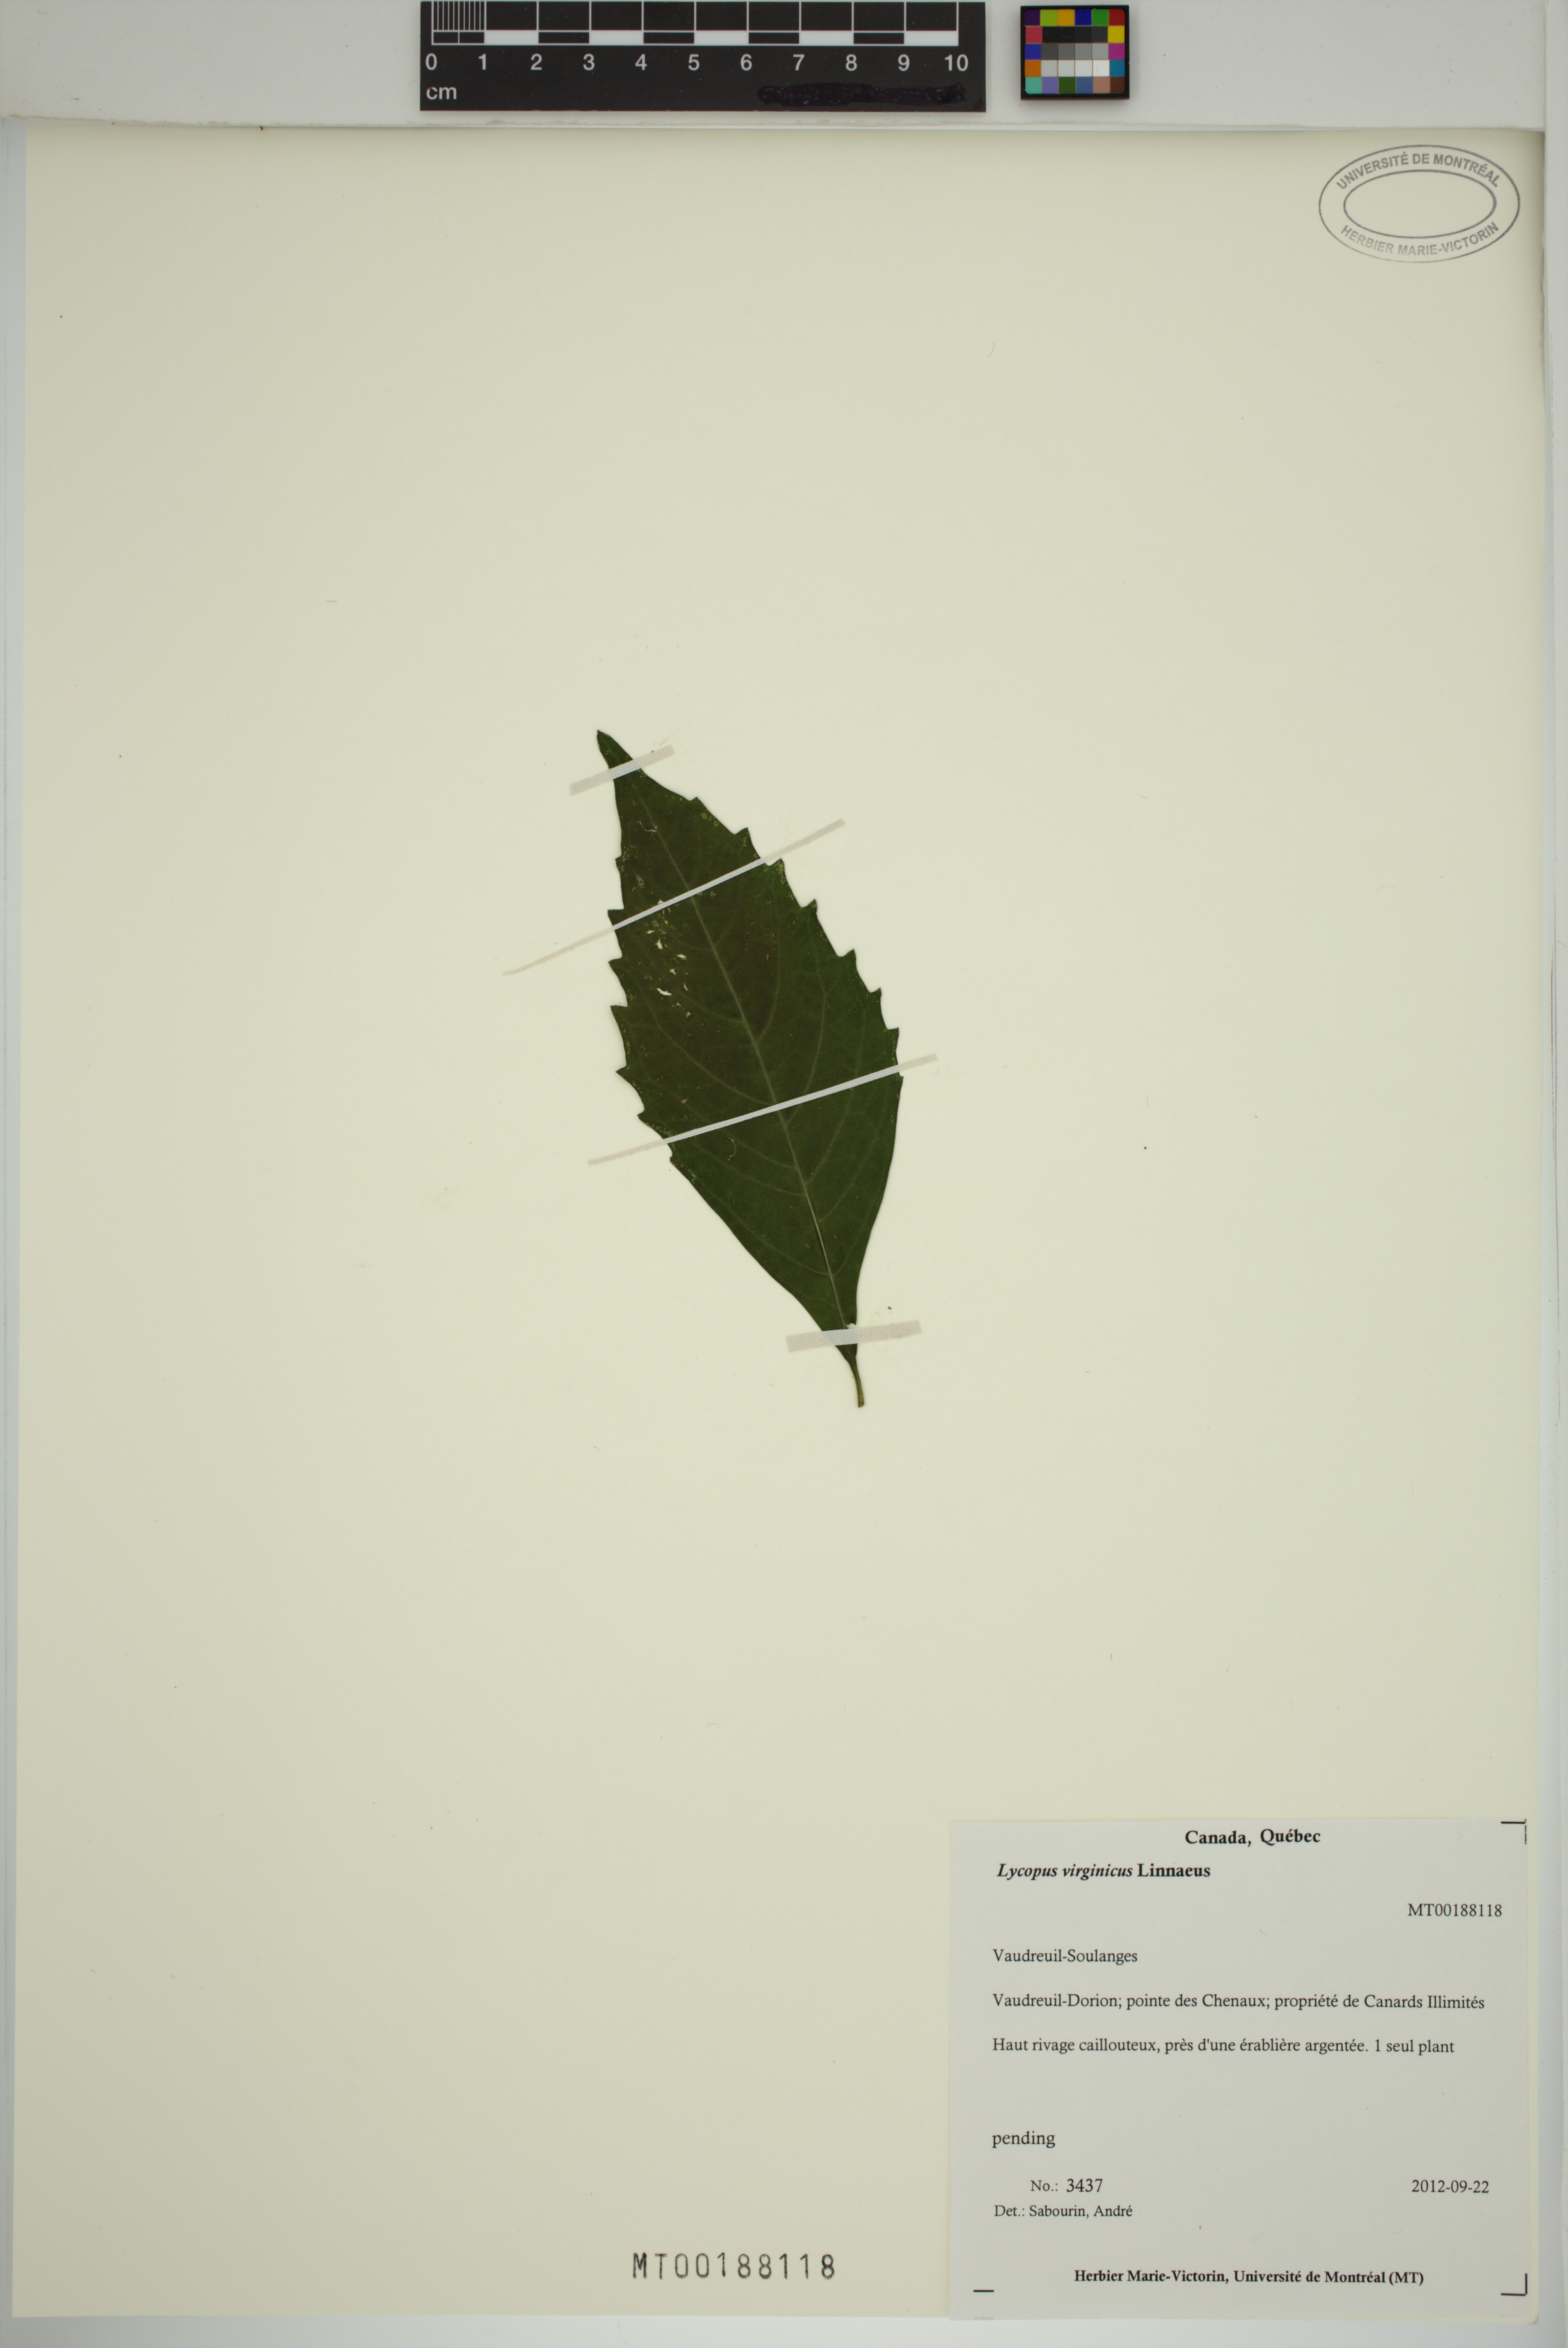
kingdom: Plantae
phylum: Tracheophyta
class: Magnoliopsida
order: Lamiales
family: Lamiaceae
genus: Lycopus
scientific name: Lycopus virginicus
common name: Bugleweed
